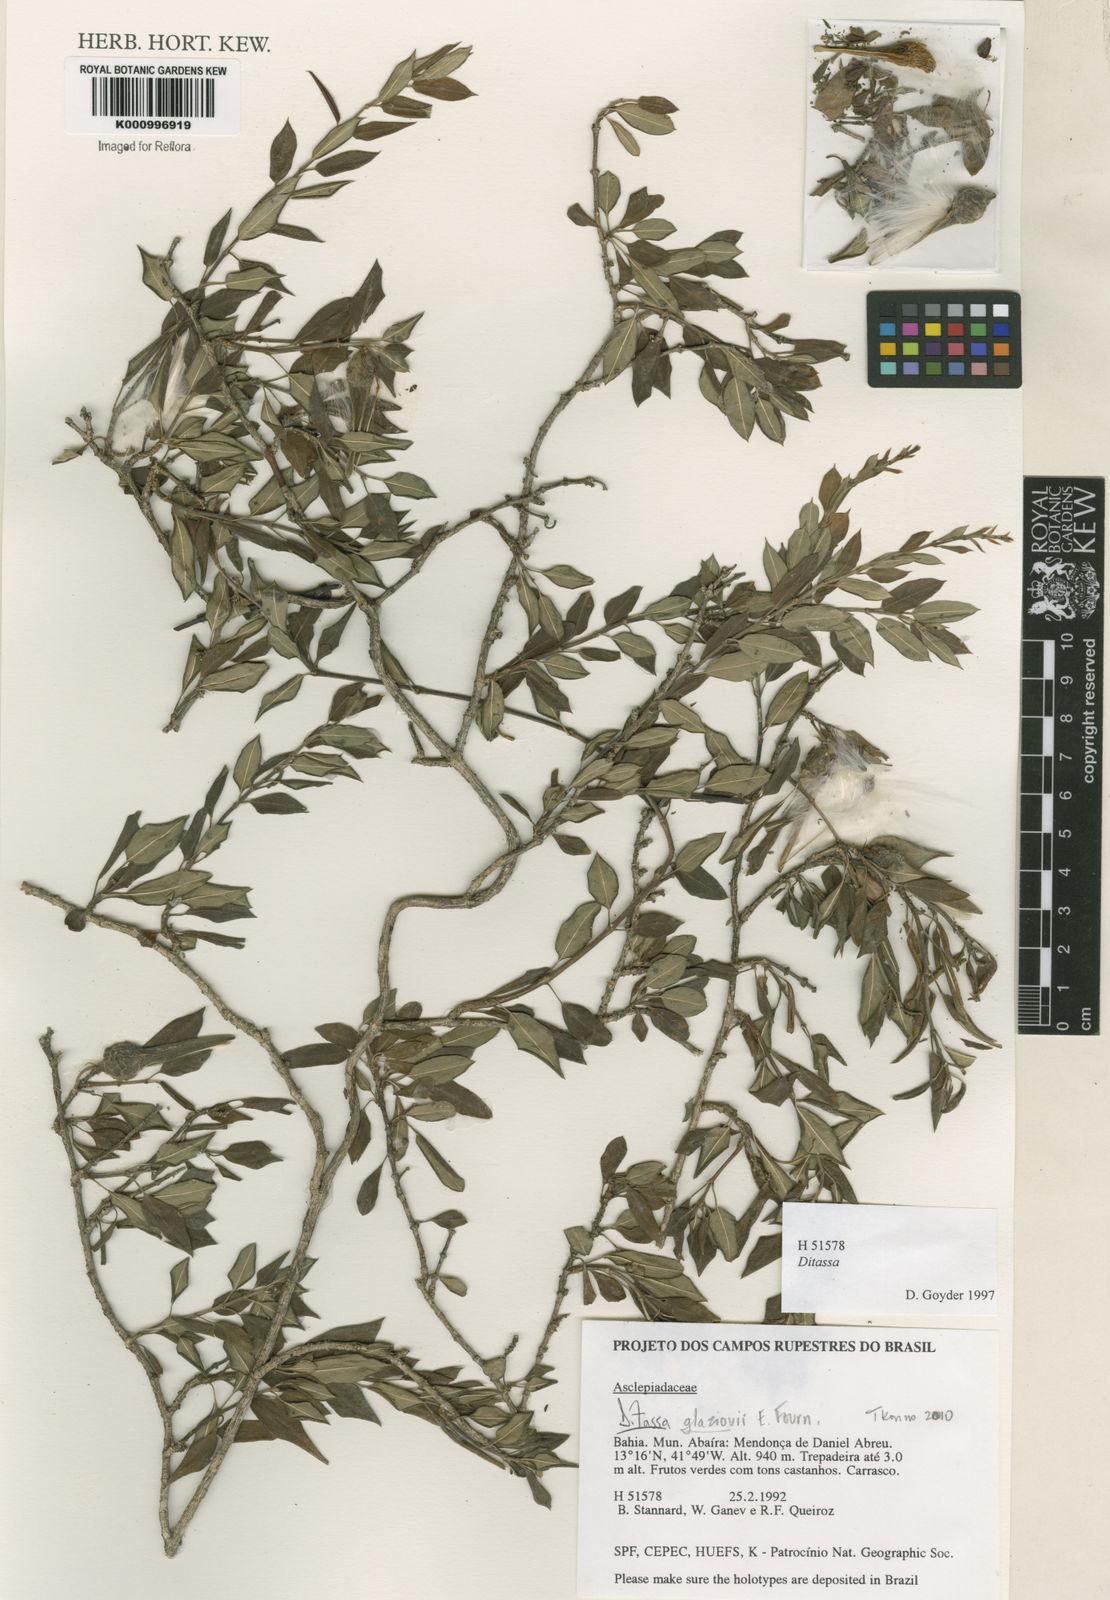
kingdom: Plantae
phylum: Tracheophyta
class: Magnoliopsida
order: Gentianales
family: Apocynaceae
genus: Ditassa
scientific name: Ditassa
